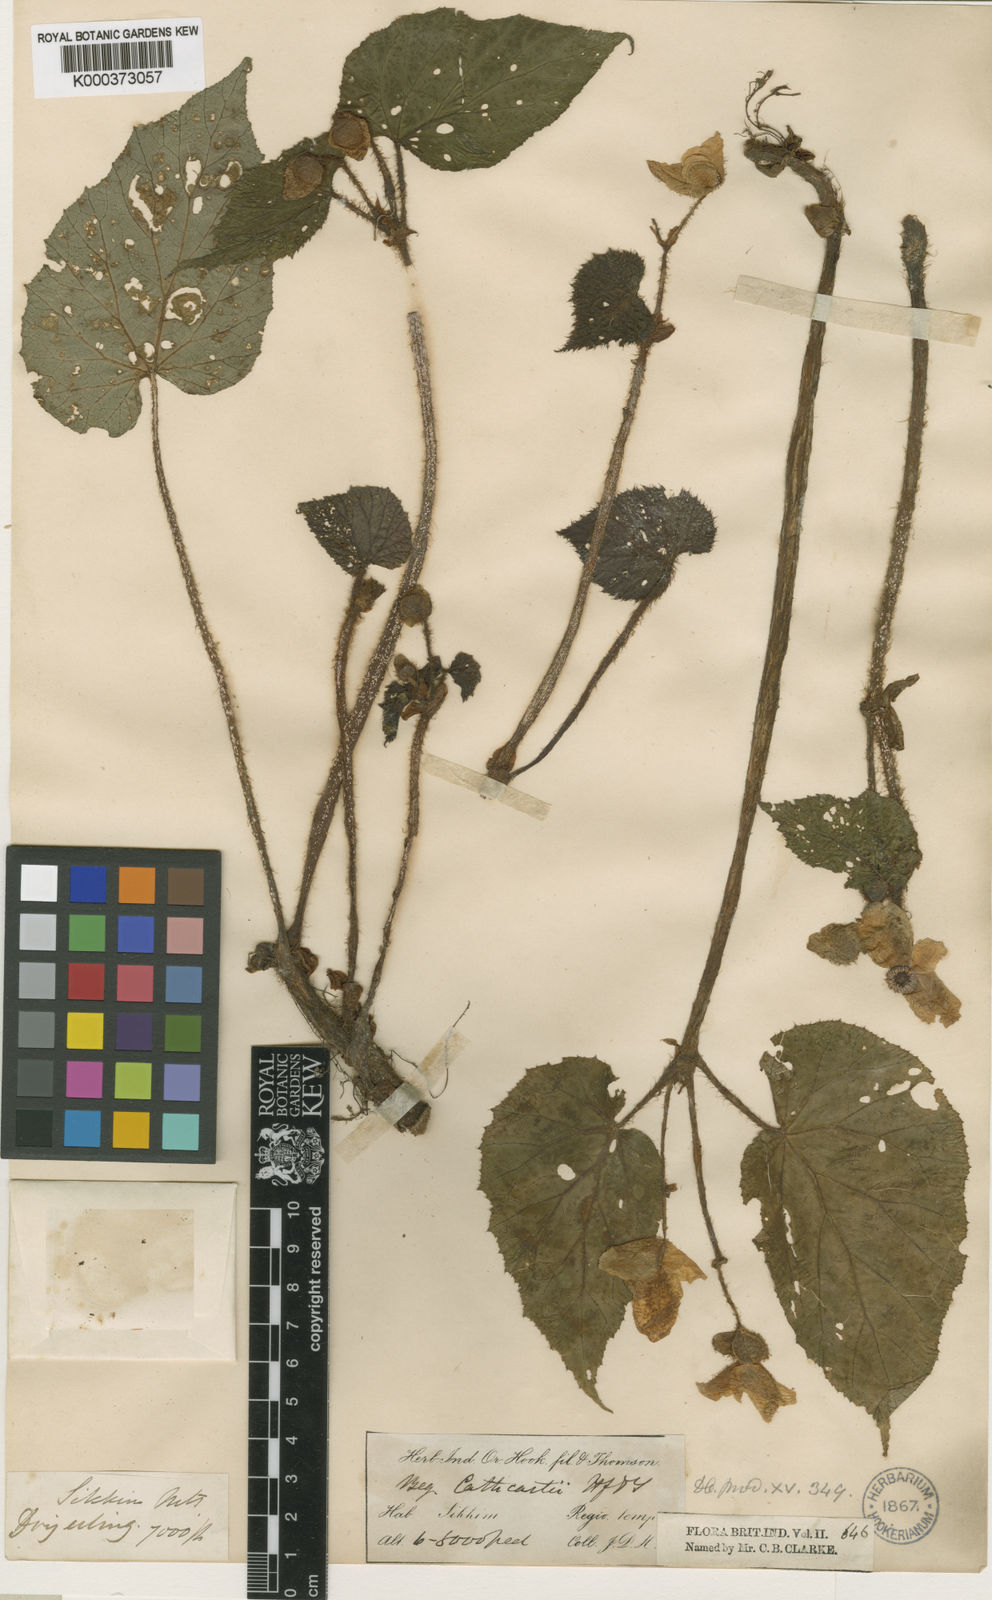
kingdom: Plantae
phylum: Tracheophyta
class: Magnoliopsida
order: Cucurbitales
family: Begoniaceae
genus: Begonia
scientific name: Begonia cathcartii
